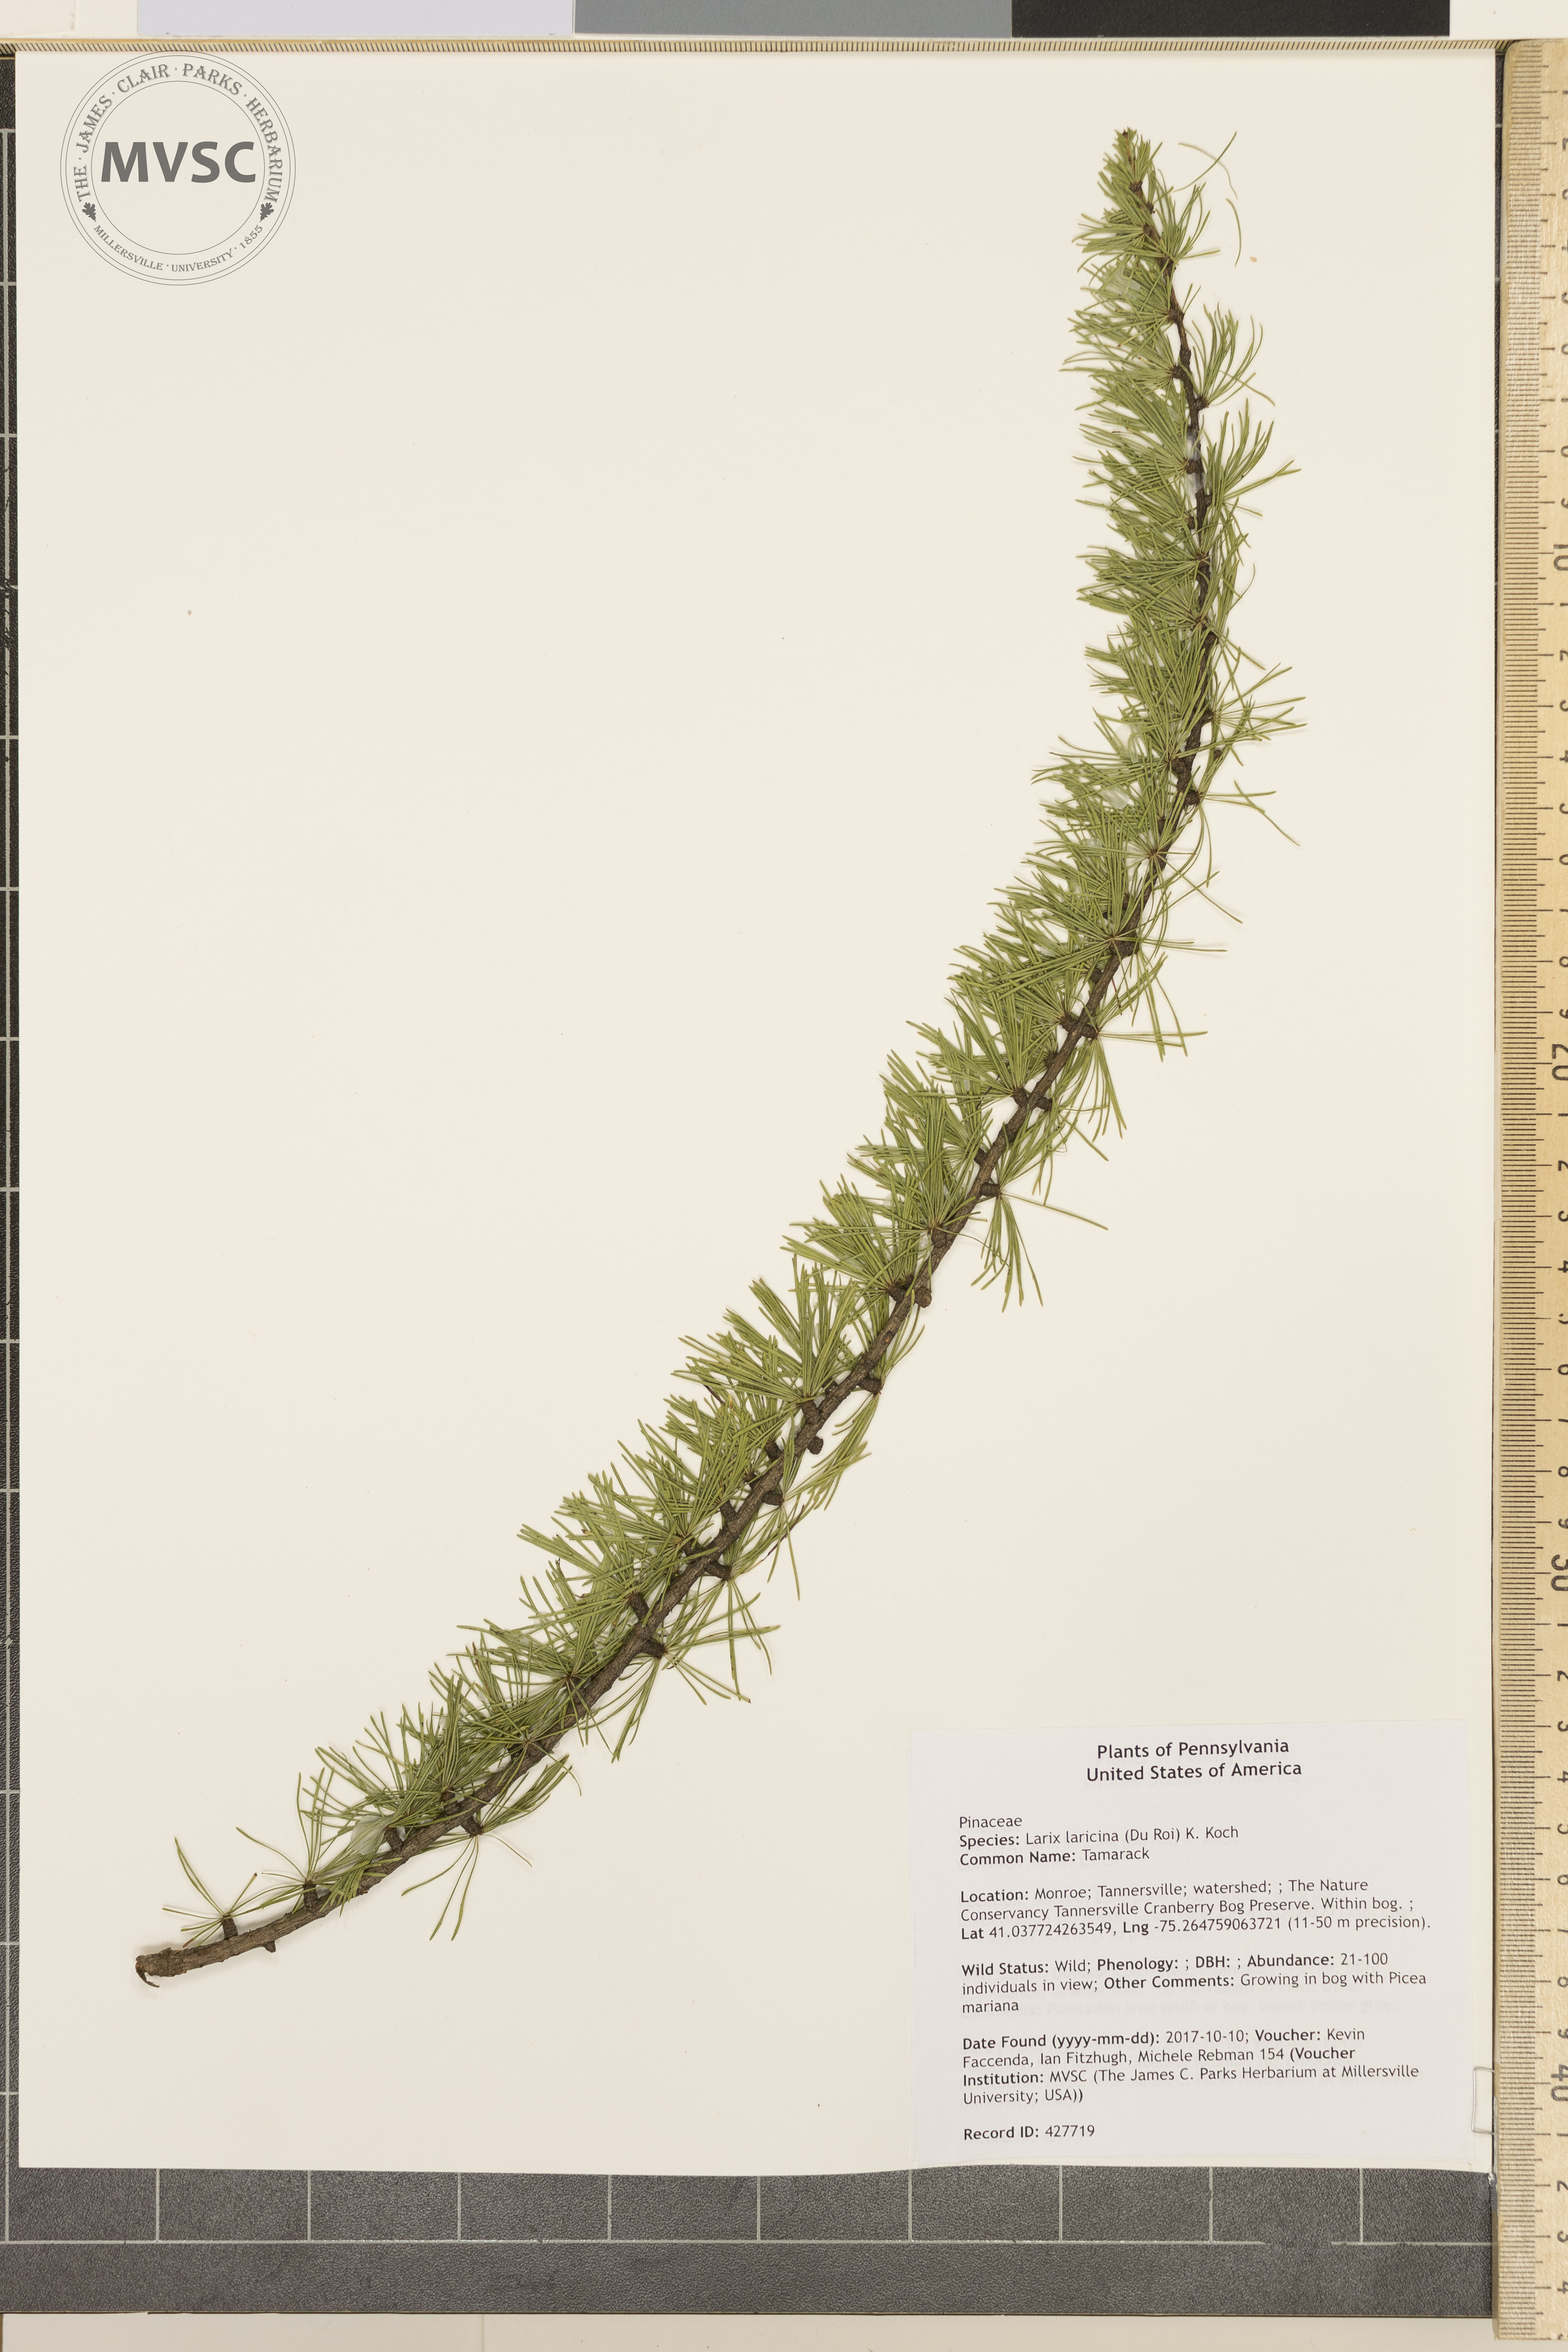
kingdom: Plantae
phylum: Tracheophyta
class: Pinopsida
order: Pinales
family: Pinaceae
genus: Larix
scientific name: Larix laricina
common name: Tamarack
